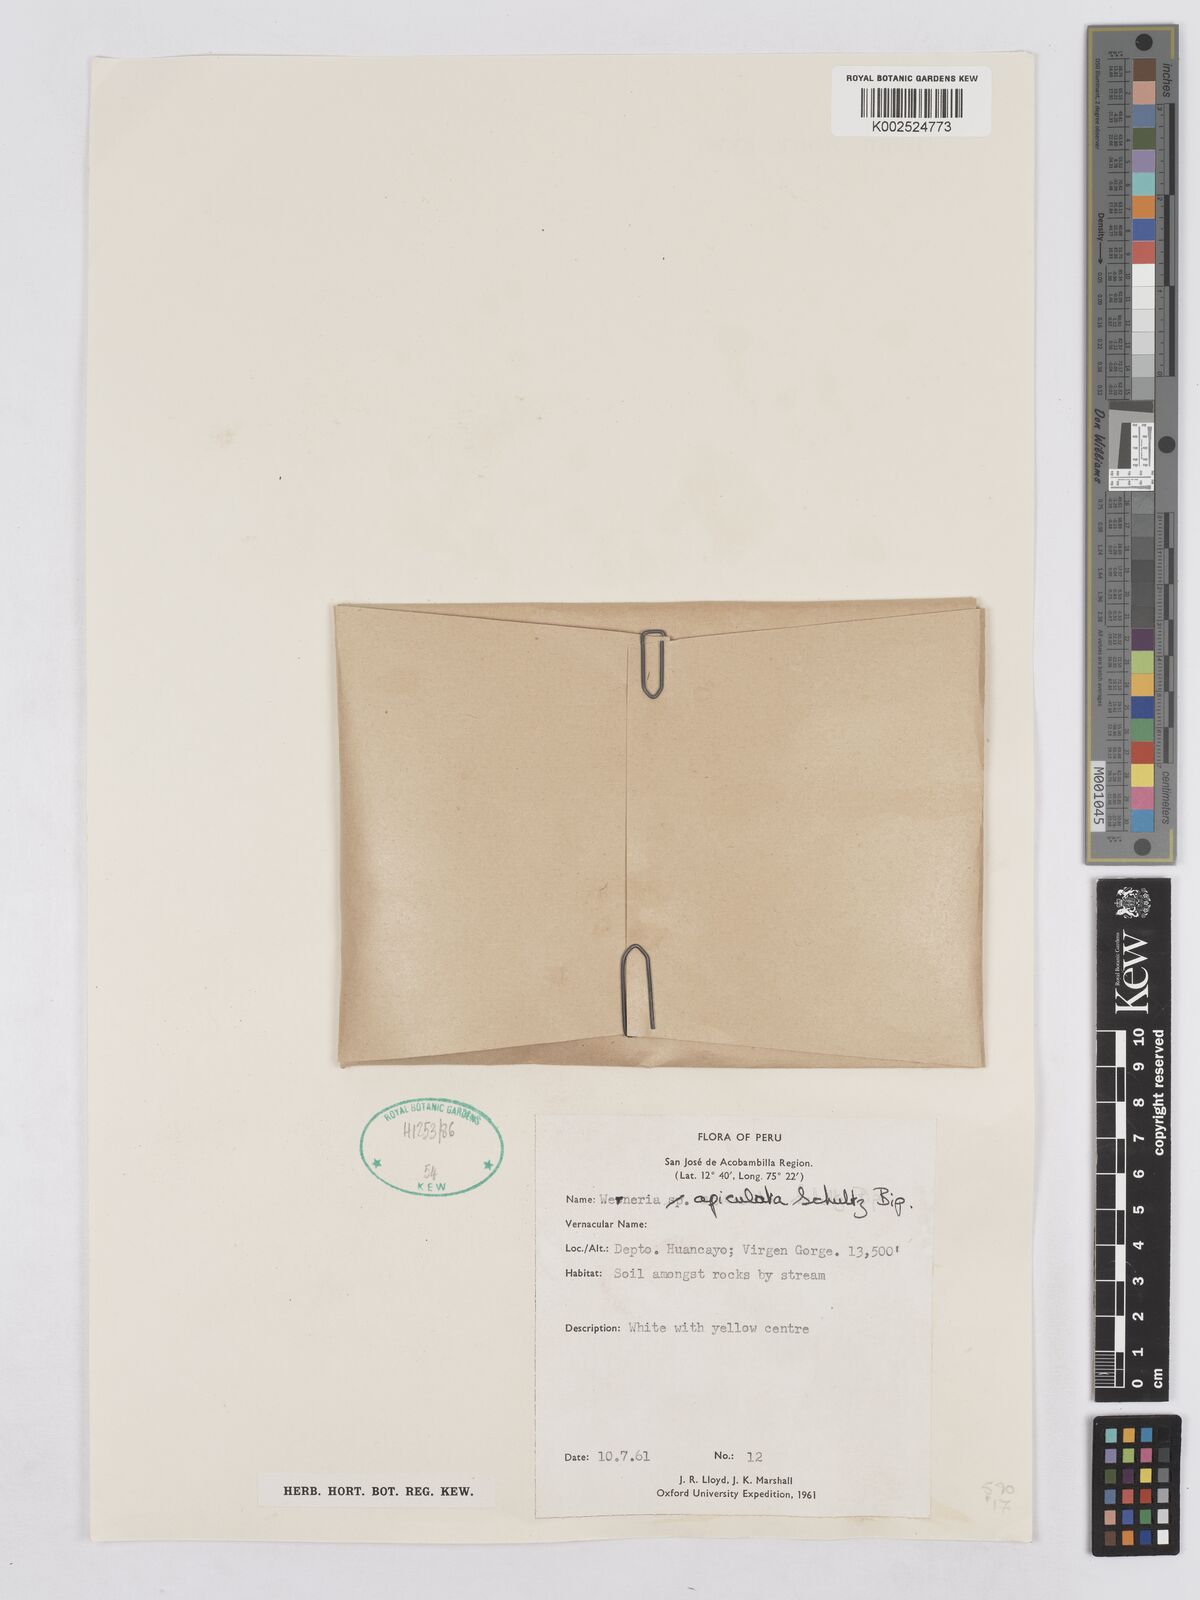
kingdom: Plantae
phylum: Tracheophyta
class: Magnoliopsida
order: Asterales
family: Asteraceae
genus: Rockhausenia
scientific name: Rockhausenia apiculata
